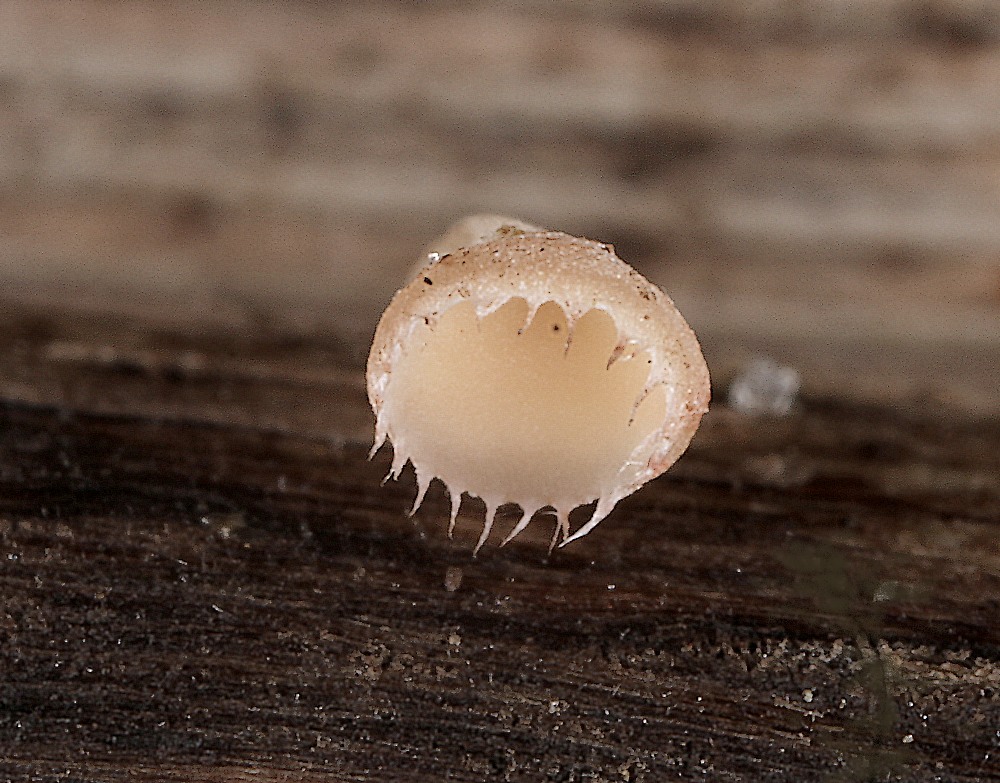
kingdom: Fungi
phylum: Ascomycota
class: Leotiomycetes
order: Helotiales
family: Helotiaceae
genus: Cyathicula
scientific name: Cyathicula coronata
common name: krone-stilkskive
